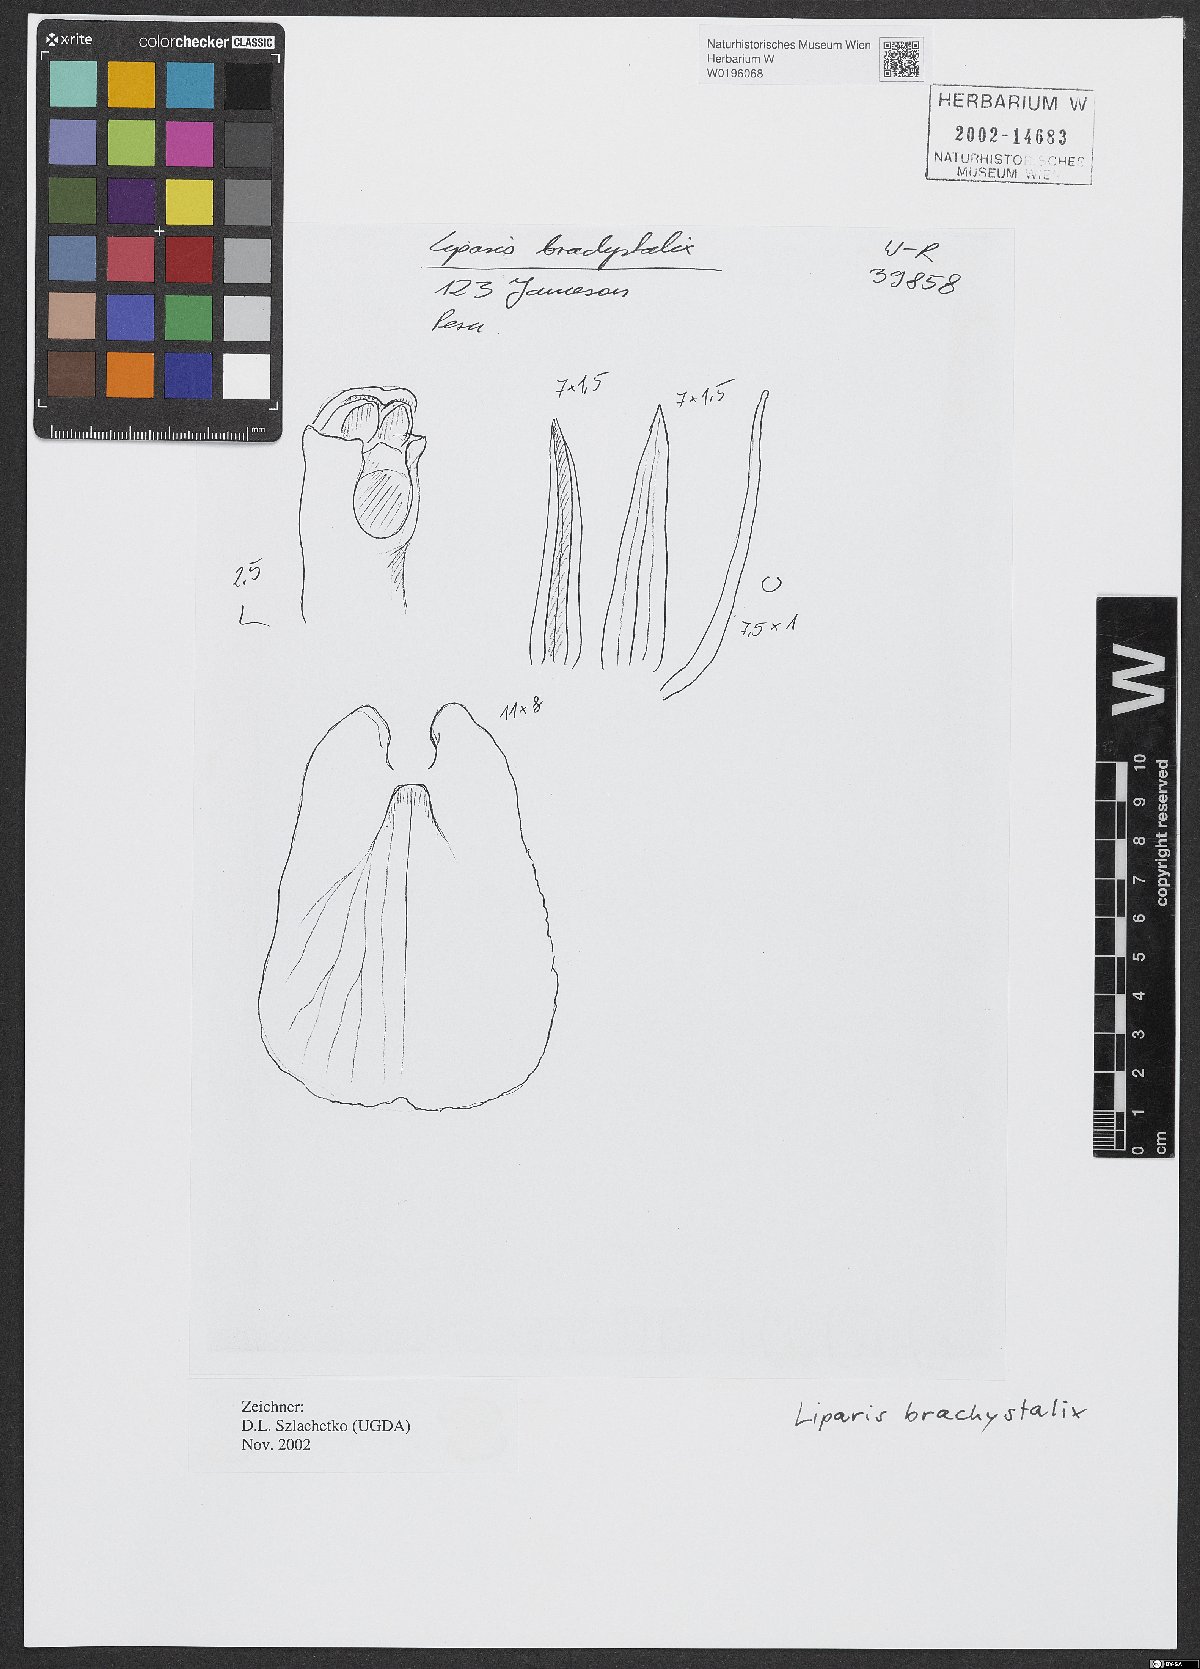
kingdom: Plantae
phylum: Tracheophyta
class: Liliopsida
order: Asparagales
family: Orchidaceae
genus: Liparis
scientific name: Liparis brachystalix
